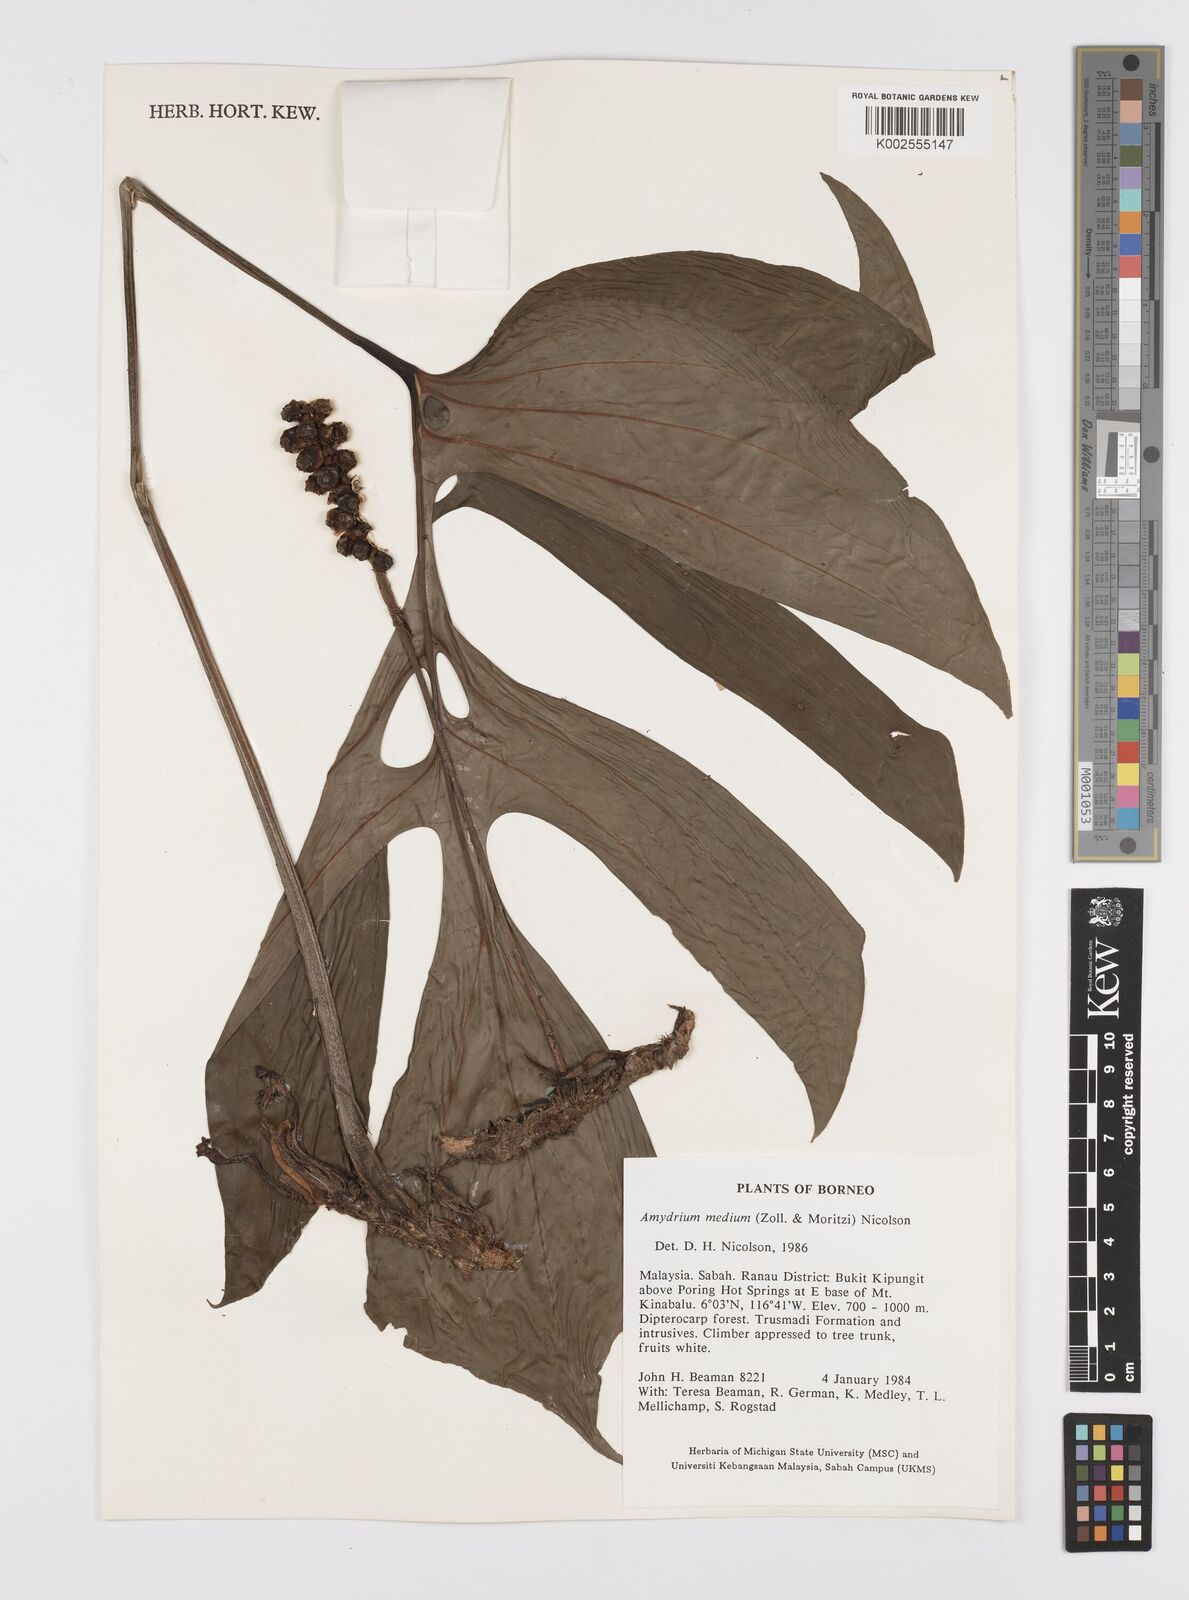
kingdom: Plantae
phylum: Tracheophyta
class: Liliopsida
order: Alismatales
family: Araceae
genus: Amydrium
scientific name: Amydrium medium
